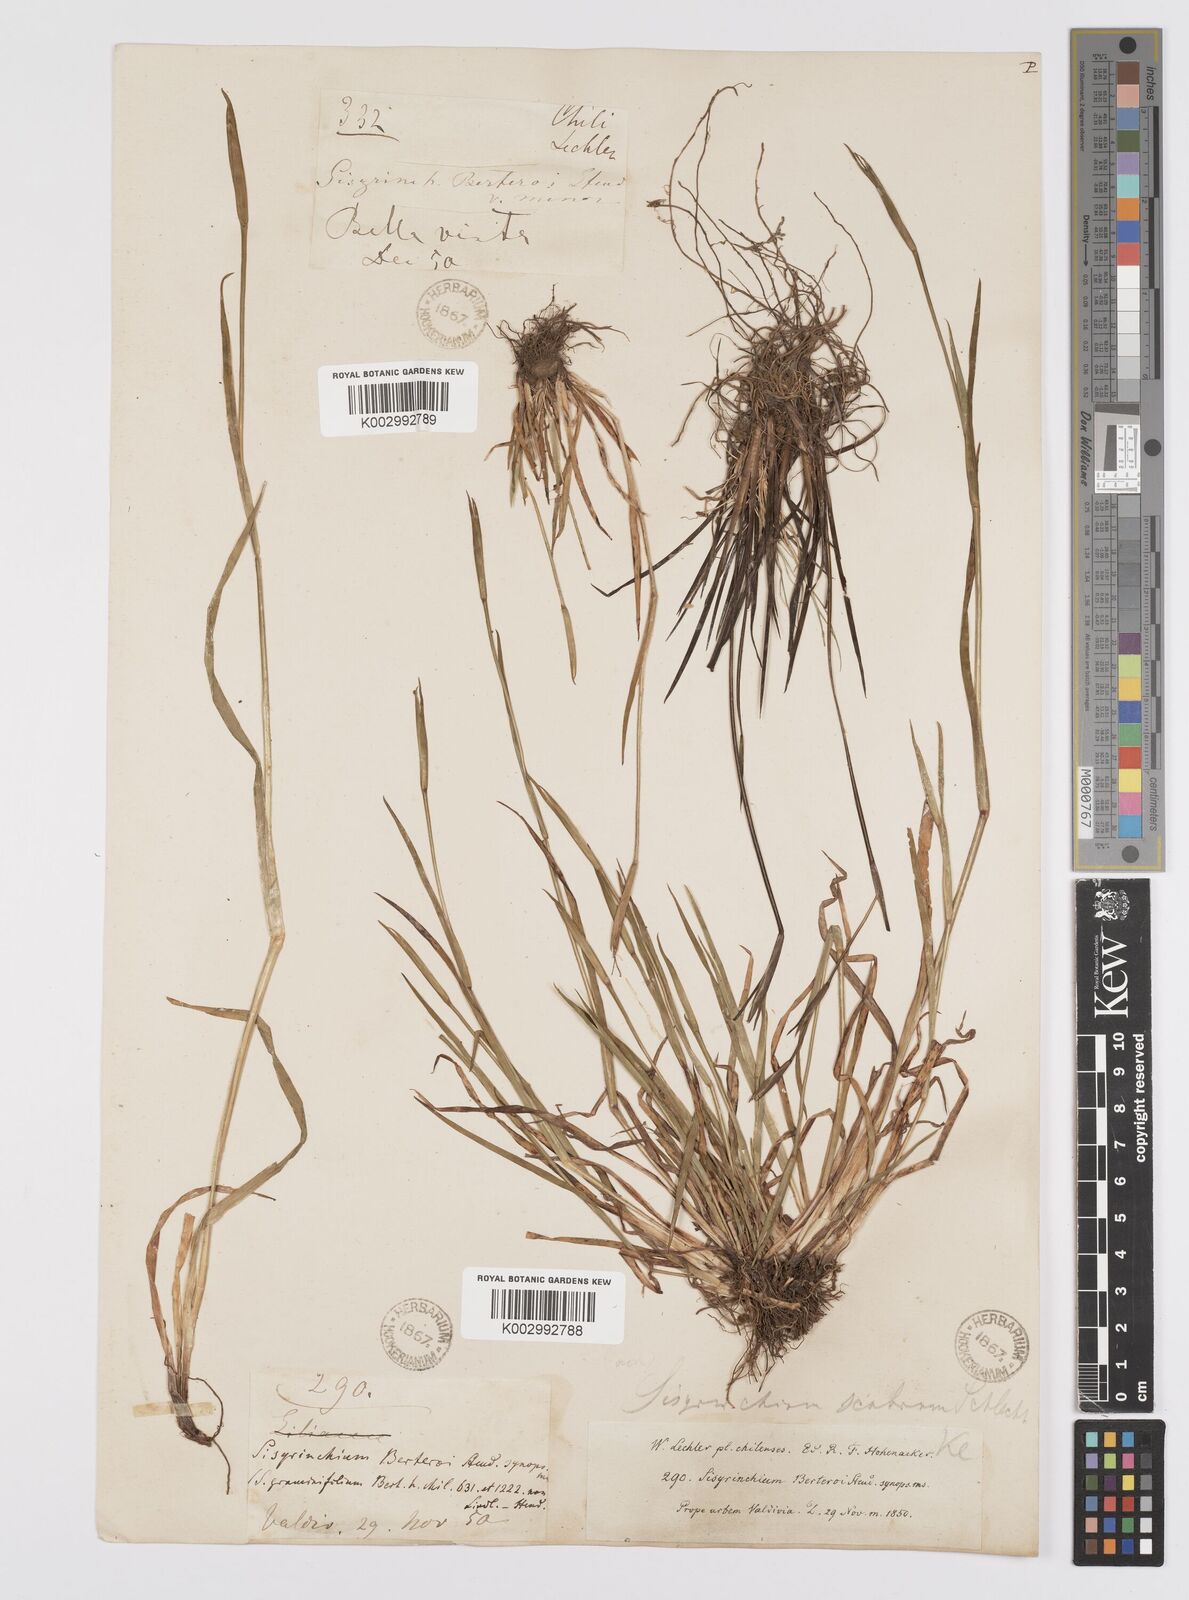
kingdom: Plantae
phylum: Tracheophyta
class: Liliopsida
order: Asparagales
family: Iridaceae
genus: Sisyrinchium
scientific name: Sisyrinchium scabrum
